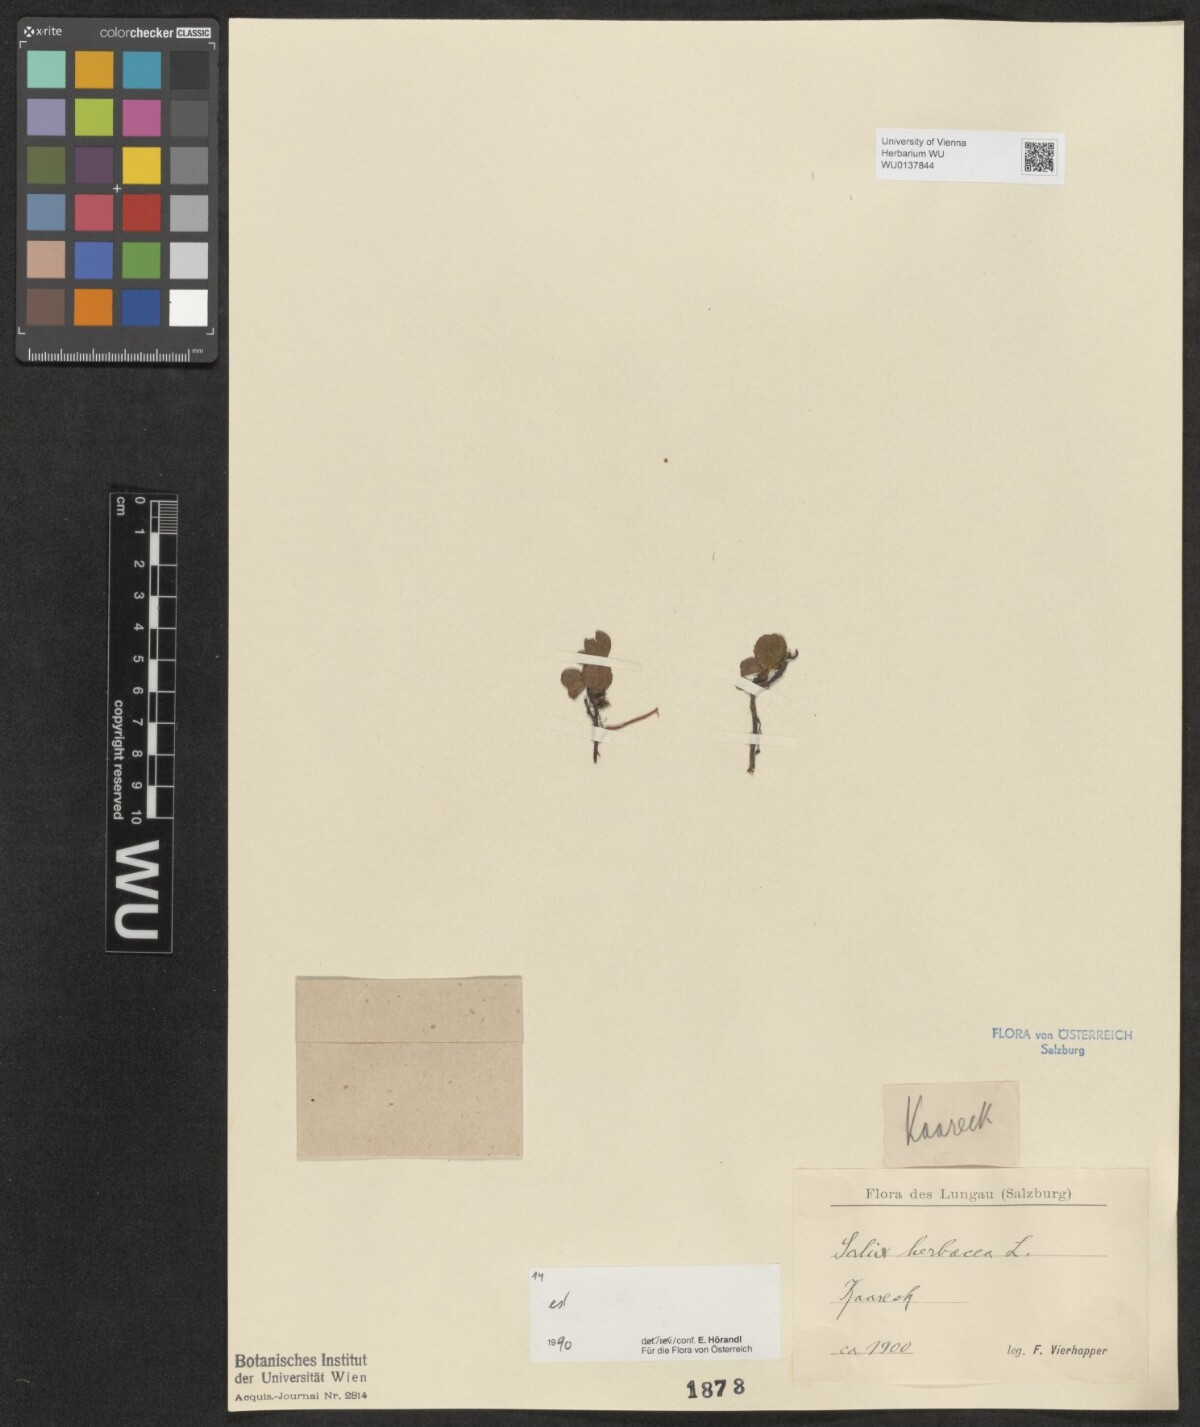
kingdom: Plantae
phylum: Tracheophyta
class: Magnoliopsida
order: Malpighiales
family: Salicaceae
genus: Salix
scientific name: Salix herbacea
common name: Dwarf willow
